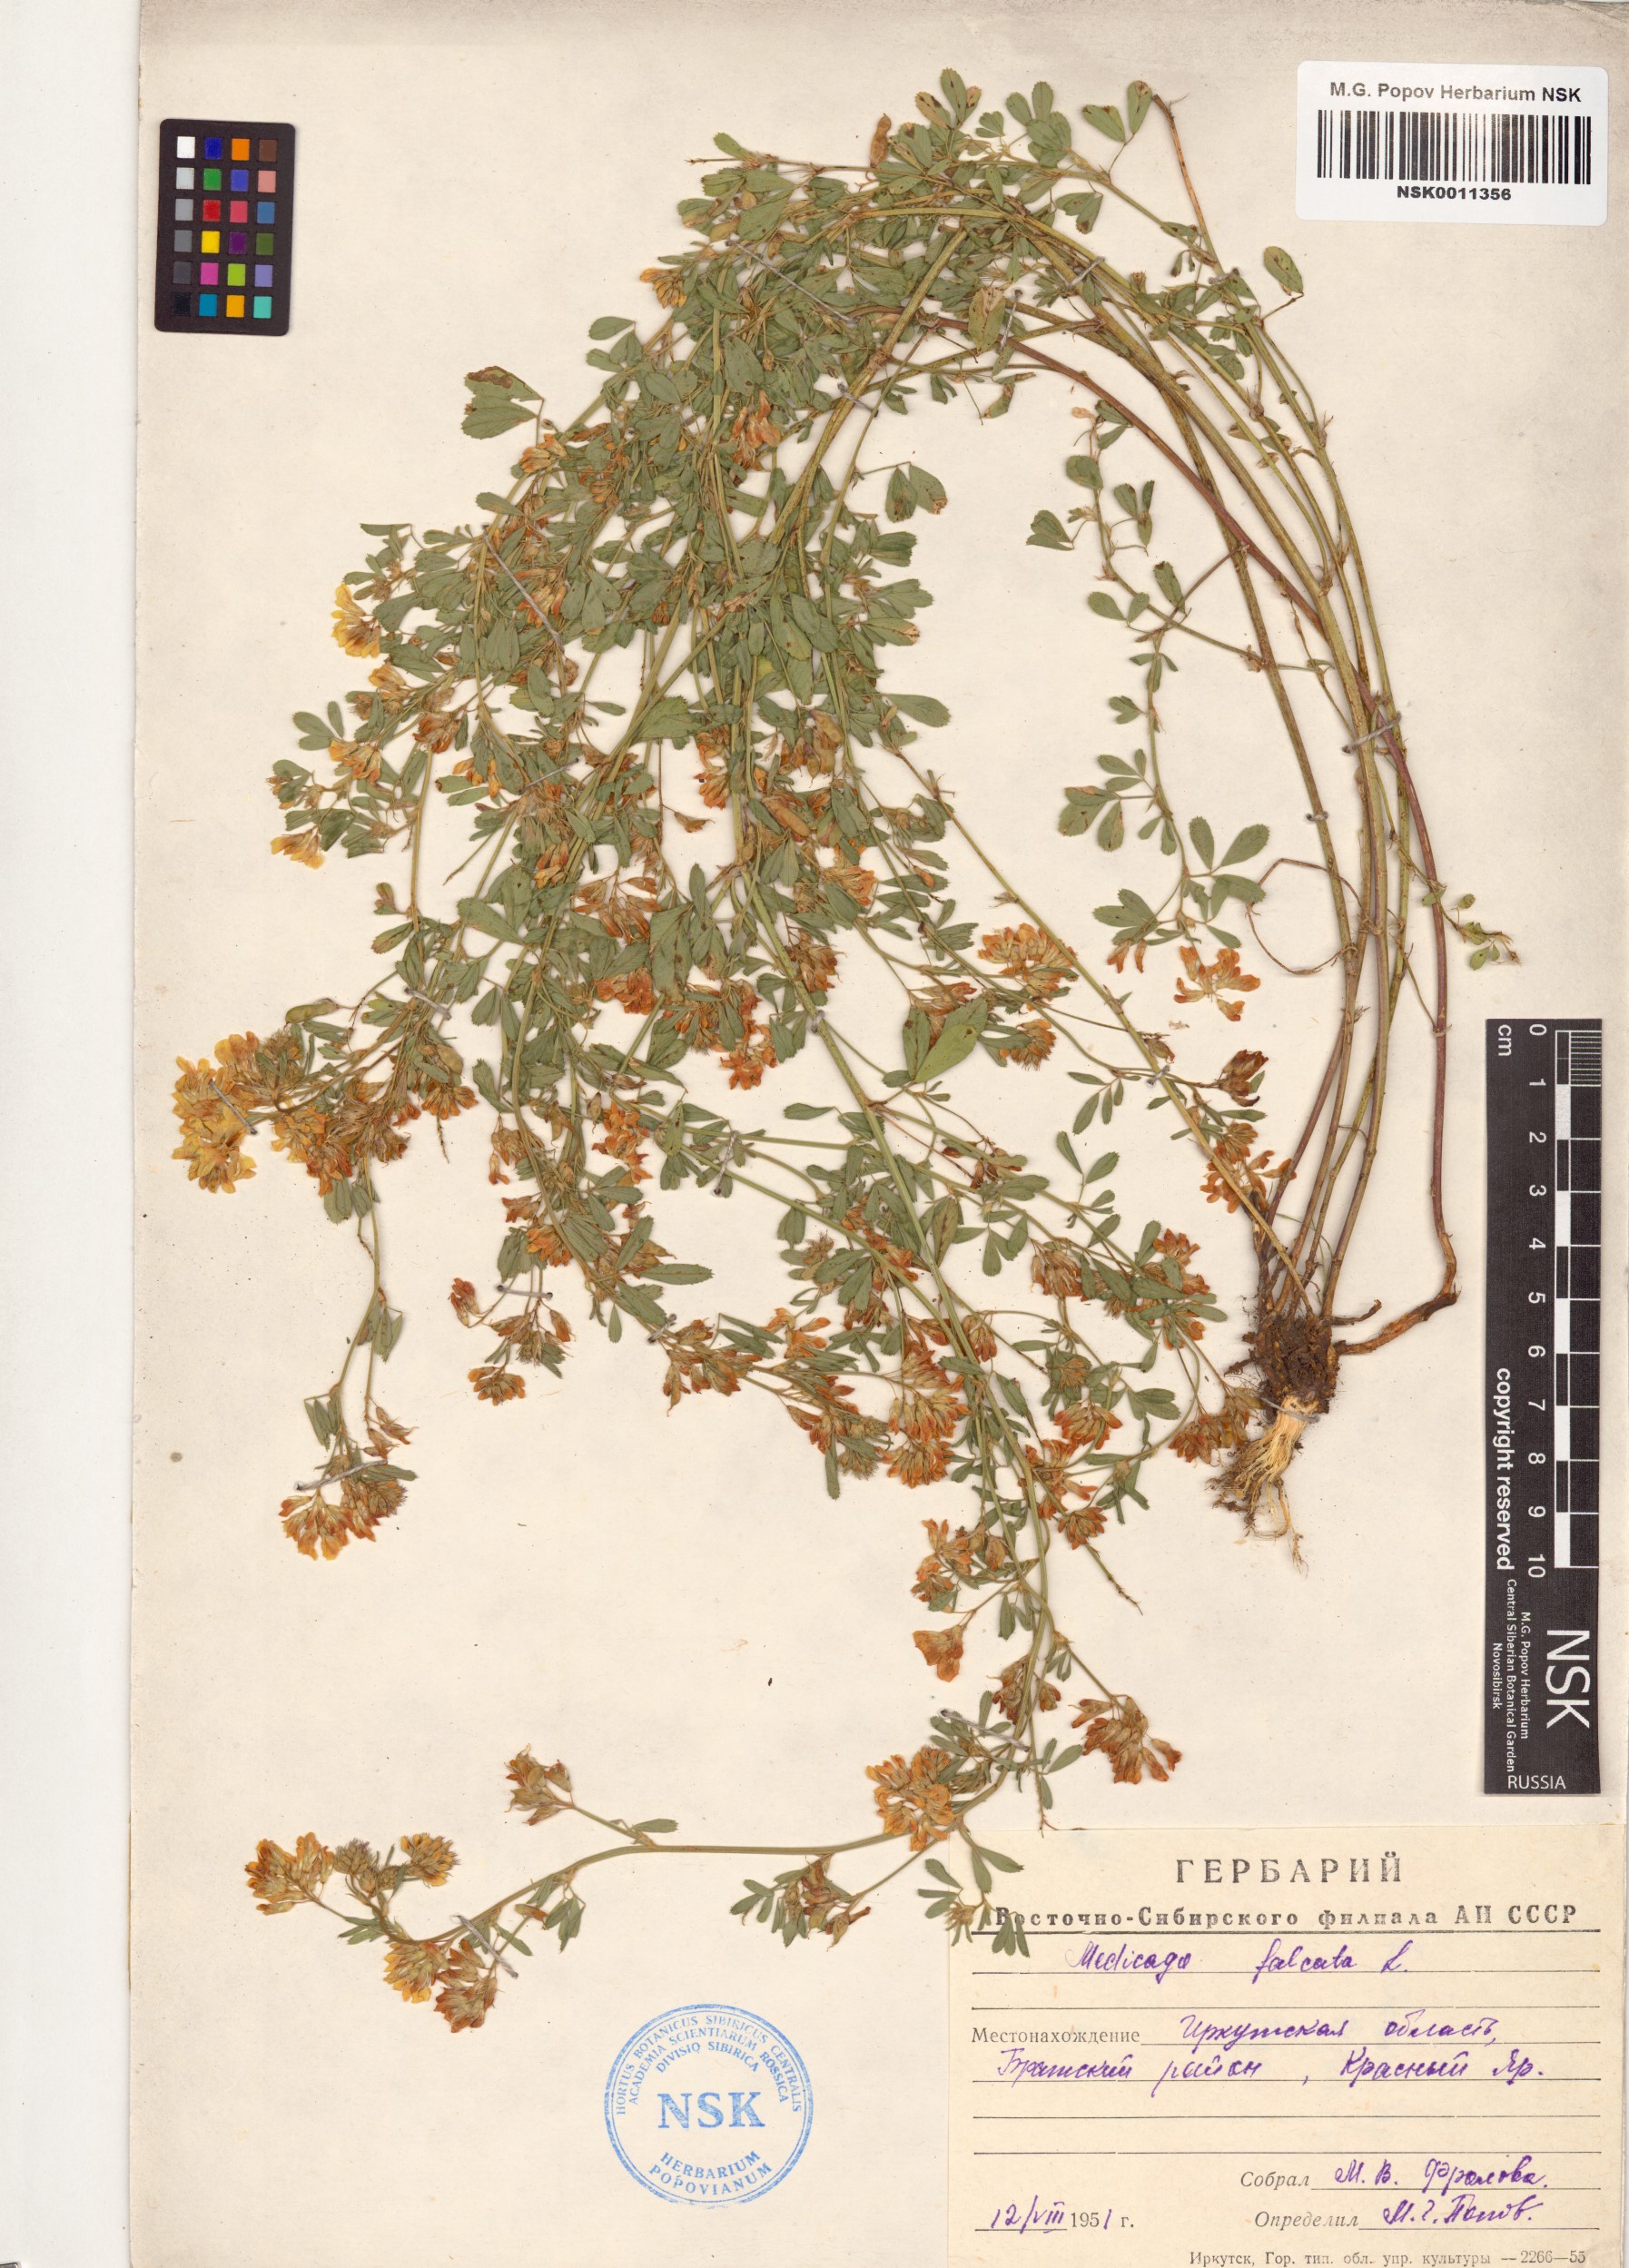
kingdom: Plantae
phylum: Tracheophyta
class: Magnoliopsida
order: Fabales
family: Fabaceae
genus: Medicago
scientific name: Medicago falcata
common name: Sickle medick
